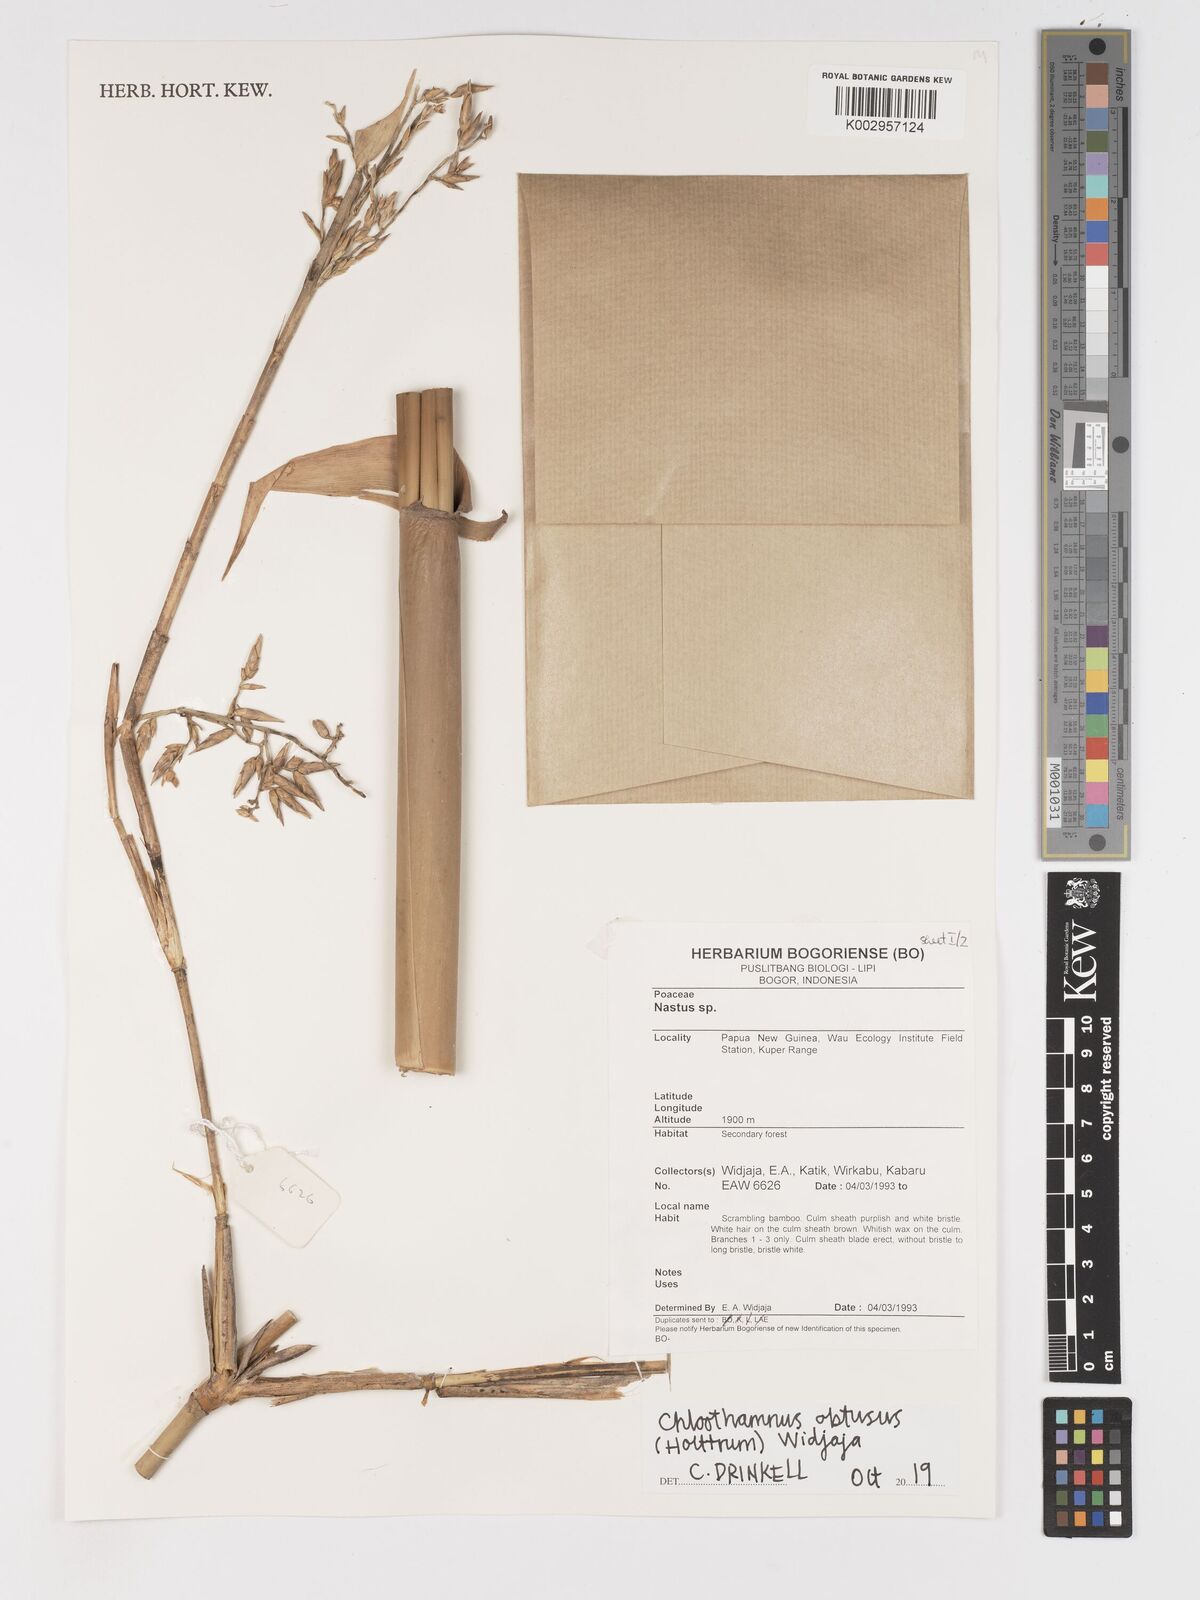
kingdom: Plantae
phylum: Tracheophyta
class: Liliopsida
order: Poales
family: Poaceae
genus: Chloothamnus
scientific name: Chloothamnus obtusus
